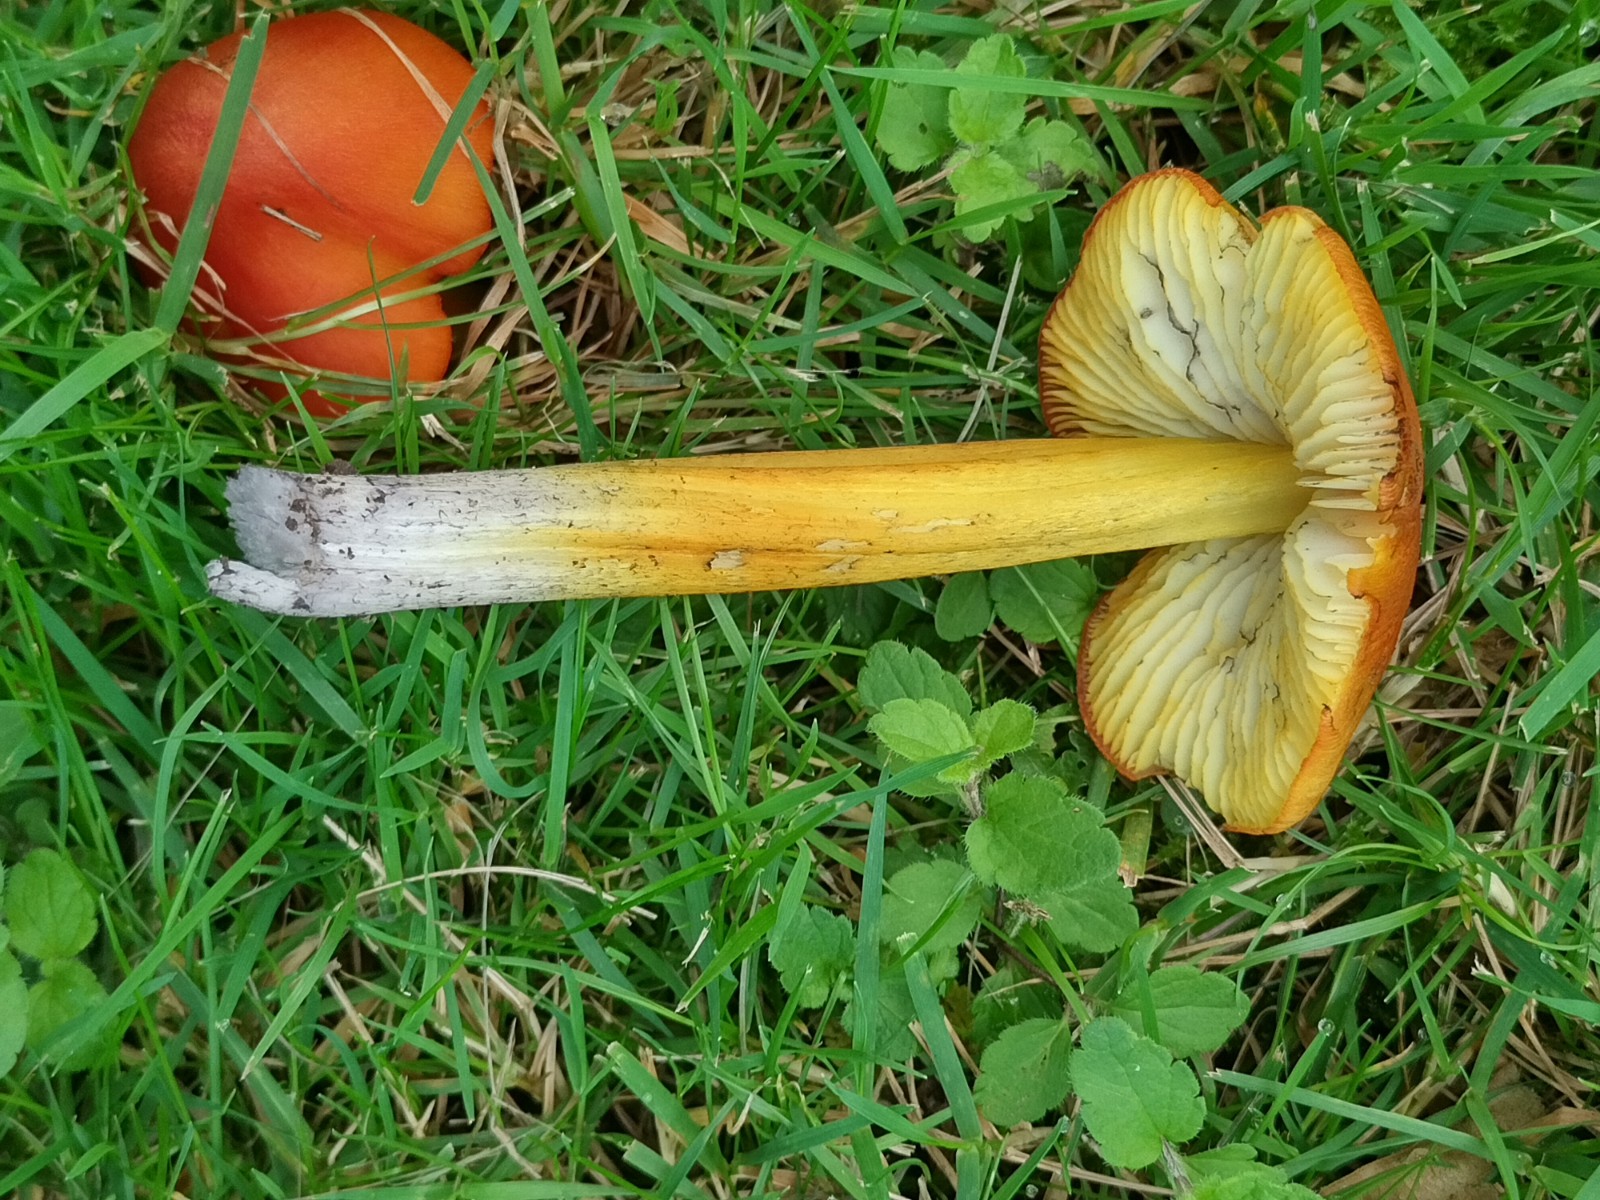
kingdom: Fungi
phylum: Basidiomycota
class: Agaricomycetes
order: Agaricales
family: Hygrophoraceae
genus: Hygrocybe
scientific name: Hygrocybe conica
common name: kegle-vokshat
